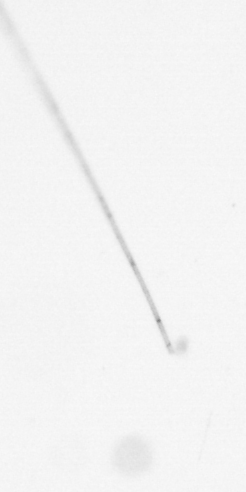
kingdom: Chromista
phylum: Ochrophyta
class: Bacillariophyceae
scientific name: Bacillariophyceae
